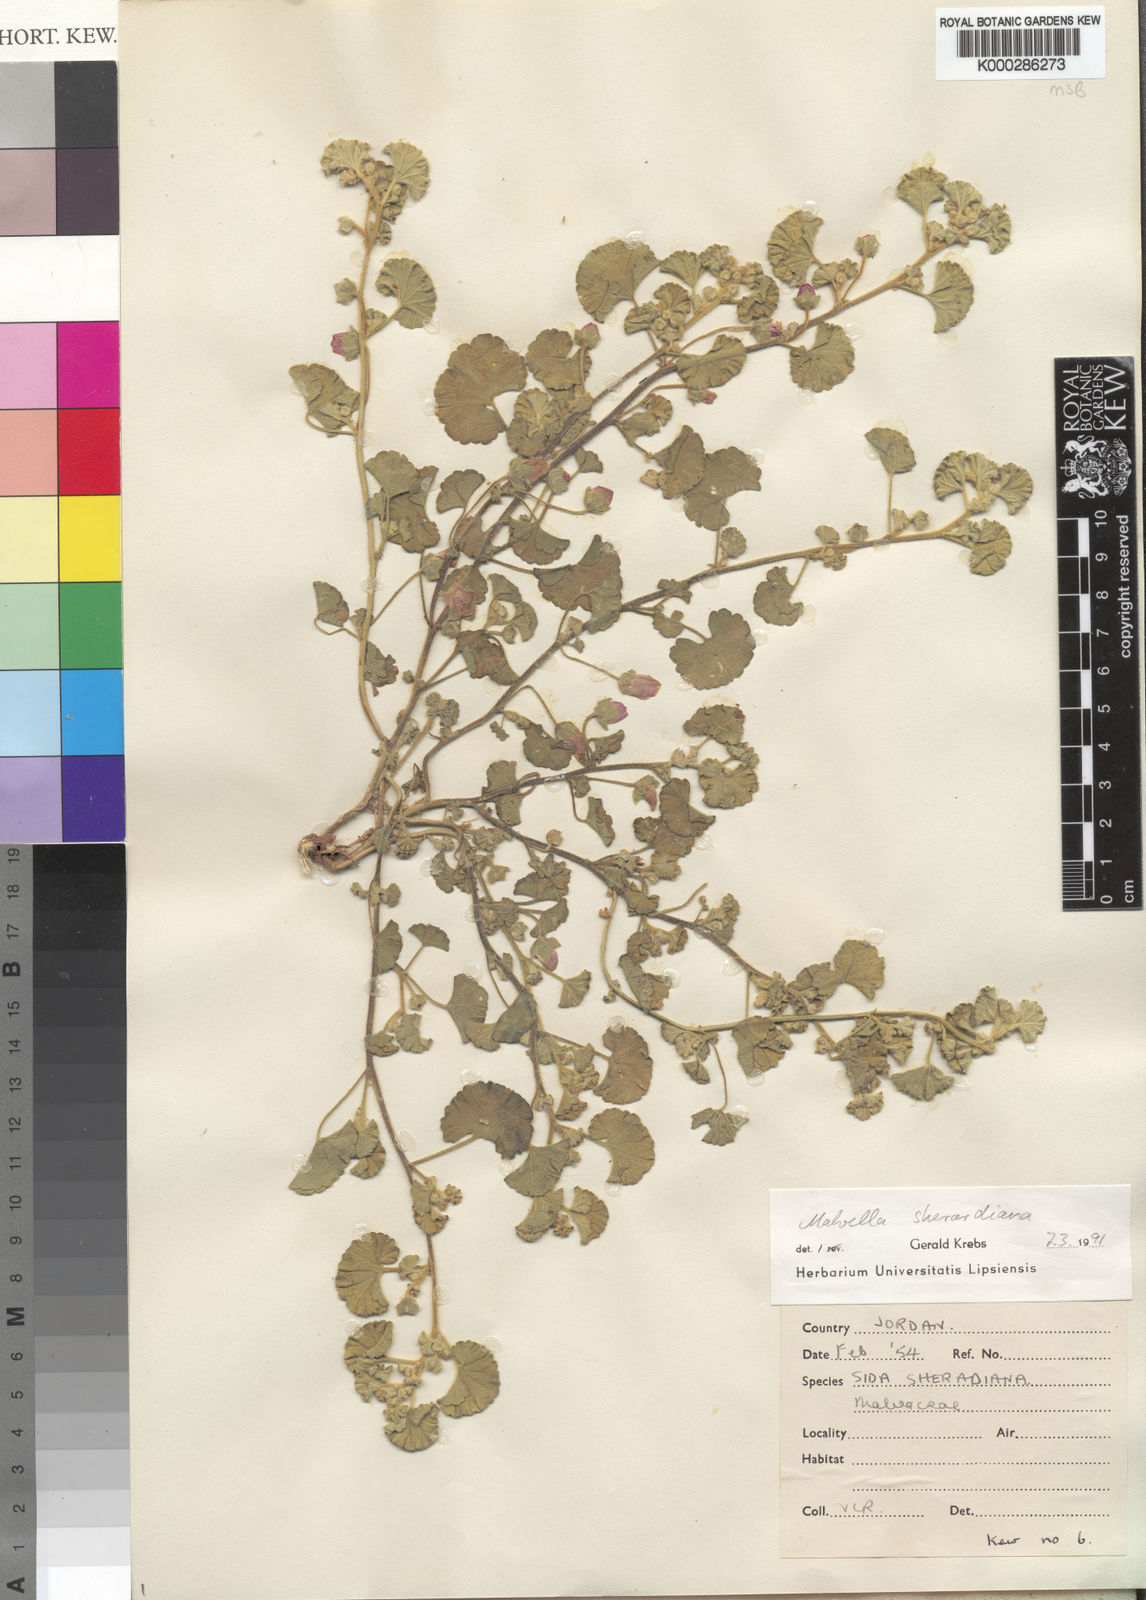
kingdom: Plantae
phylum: Tracheophyta
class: Magnoliopsida
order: Malvales
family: Malvaceae
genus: Malvella
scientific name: Malvella sherardiana
